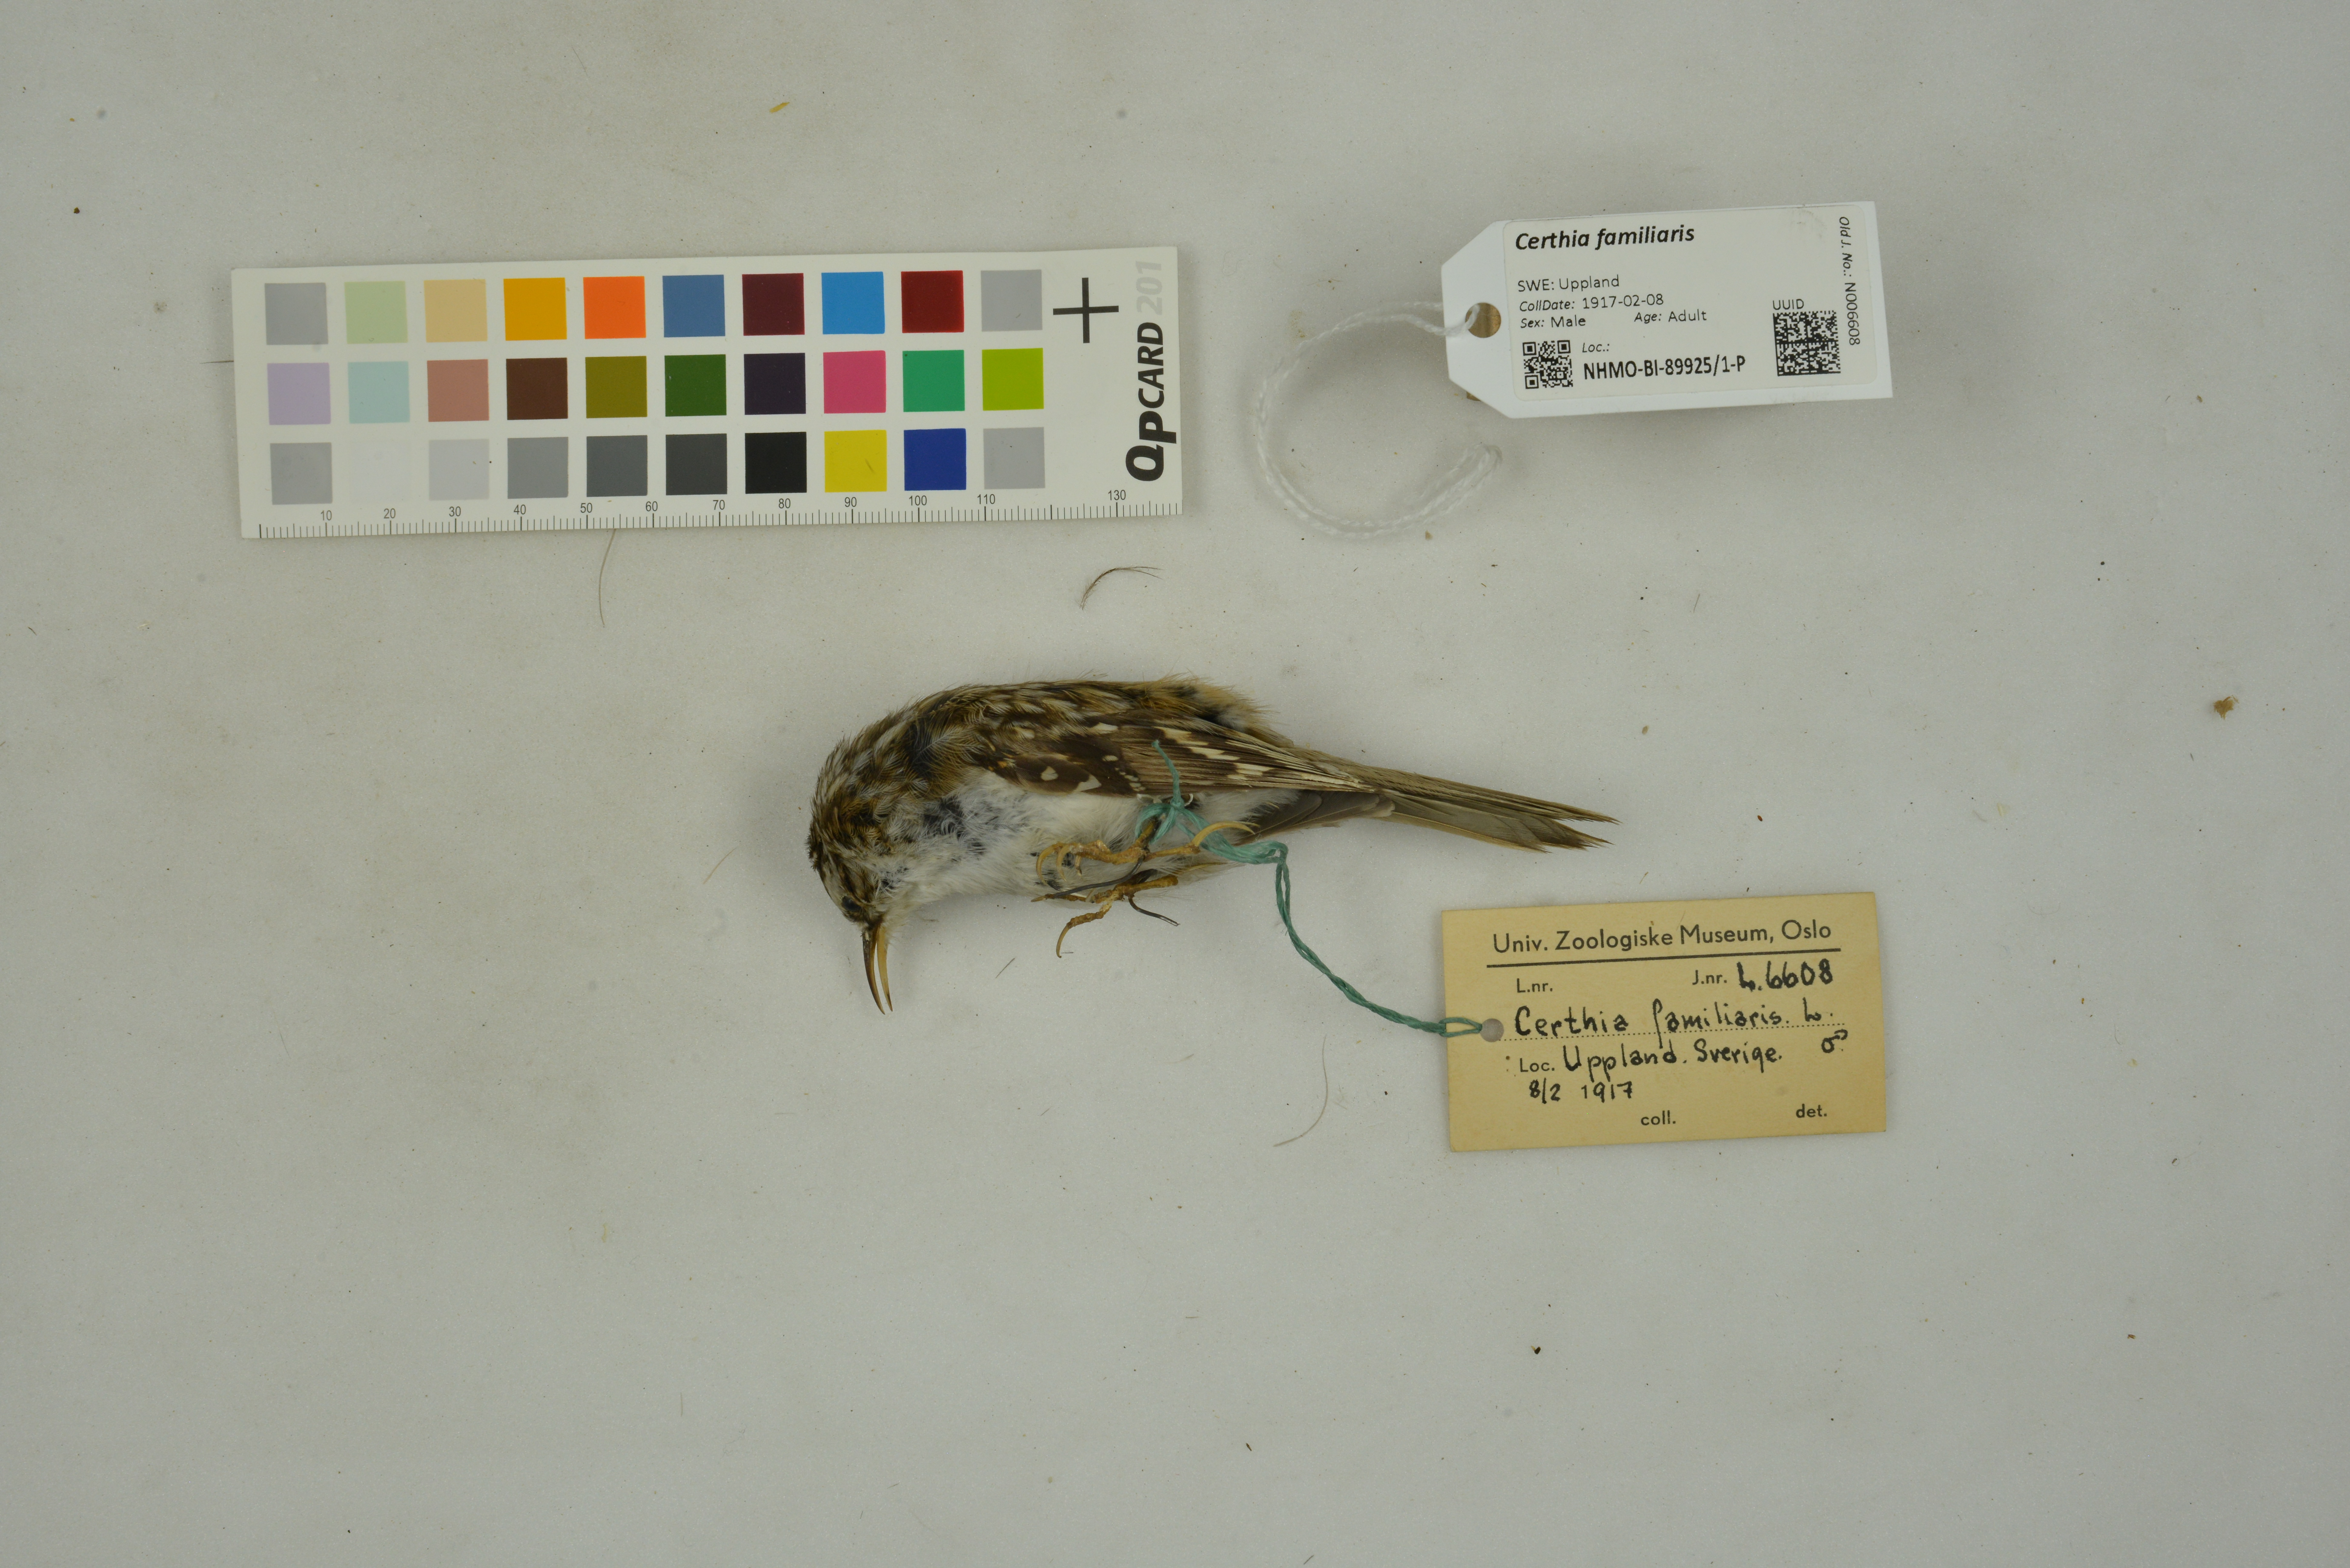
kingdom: Animalia
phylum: Chordata
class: Aves
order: Passeriformes
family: Certhiidae
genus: Certhia
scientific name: Certhia familiaris
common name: Eurasian treecreeper
